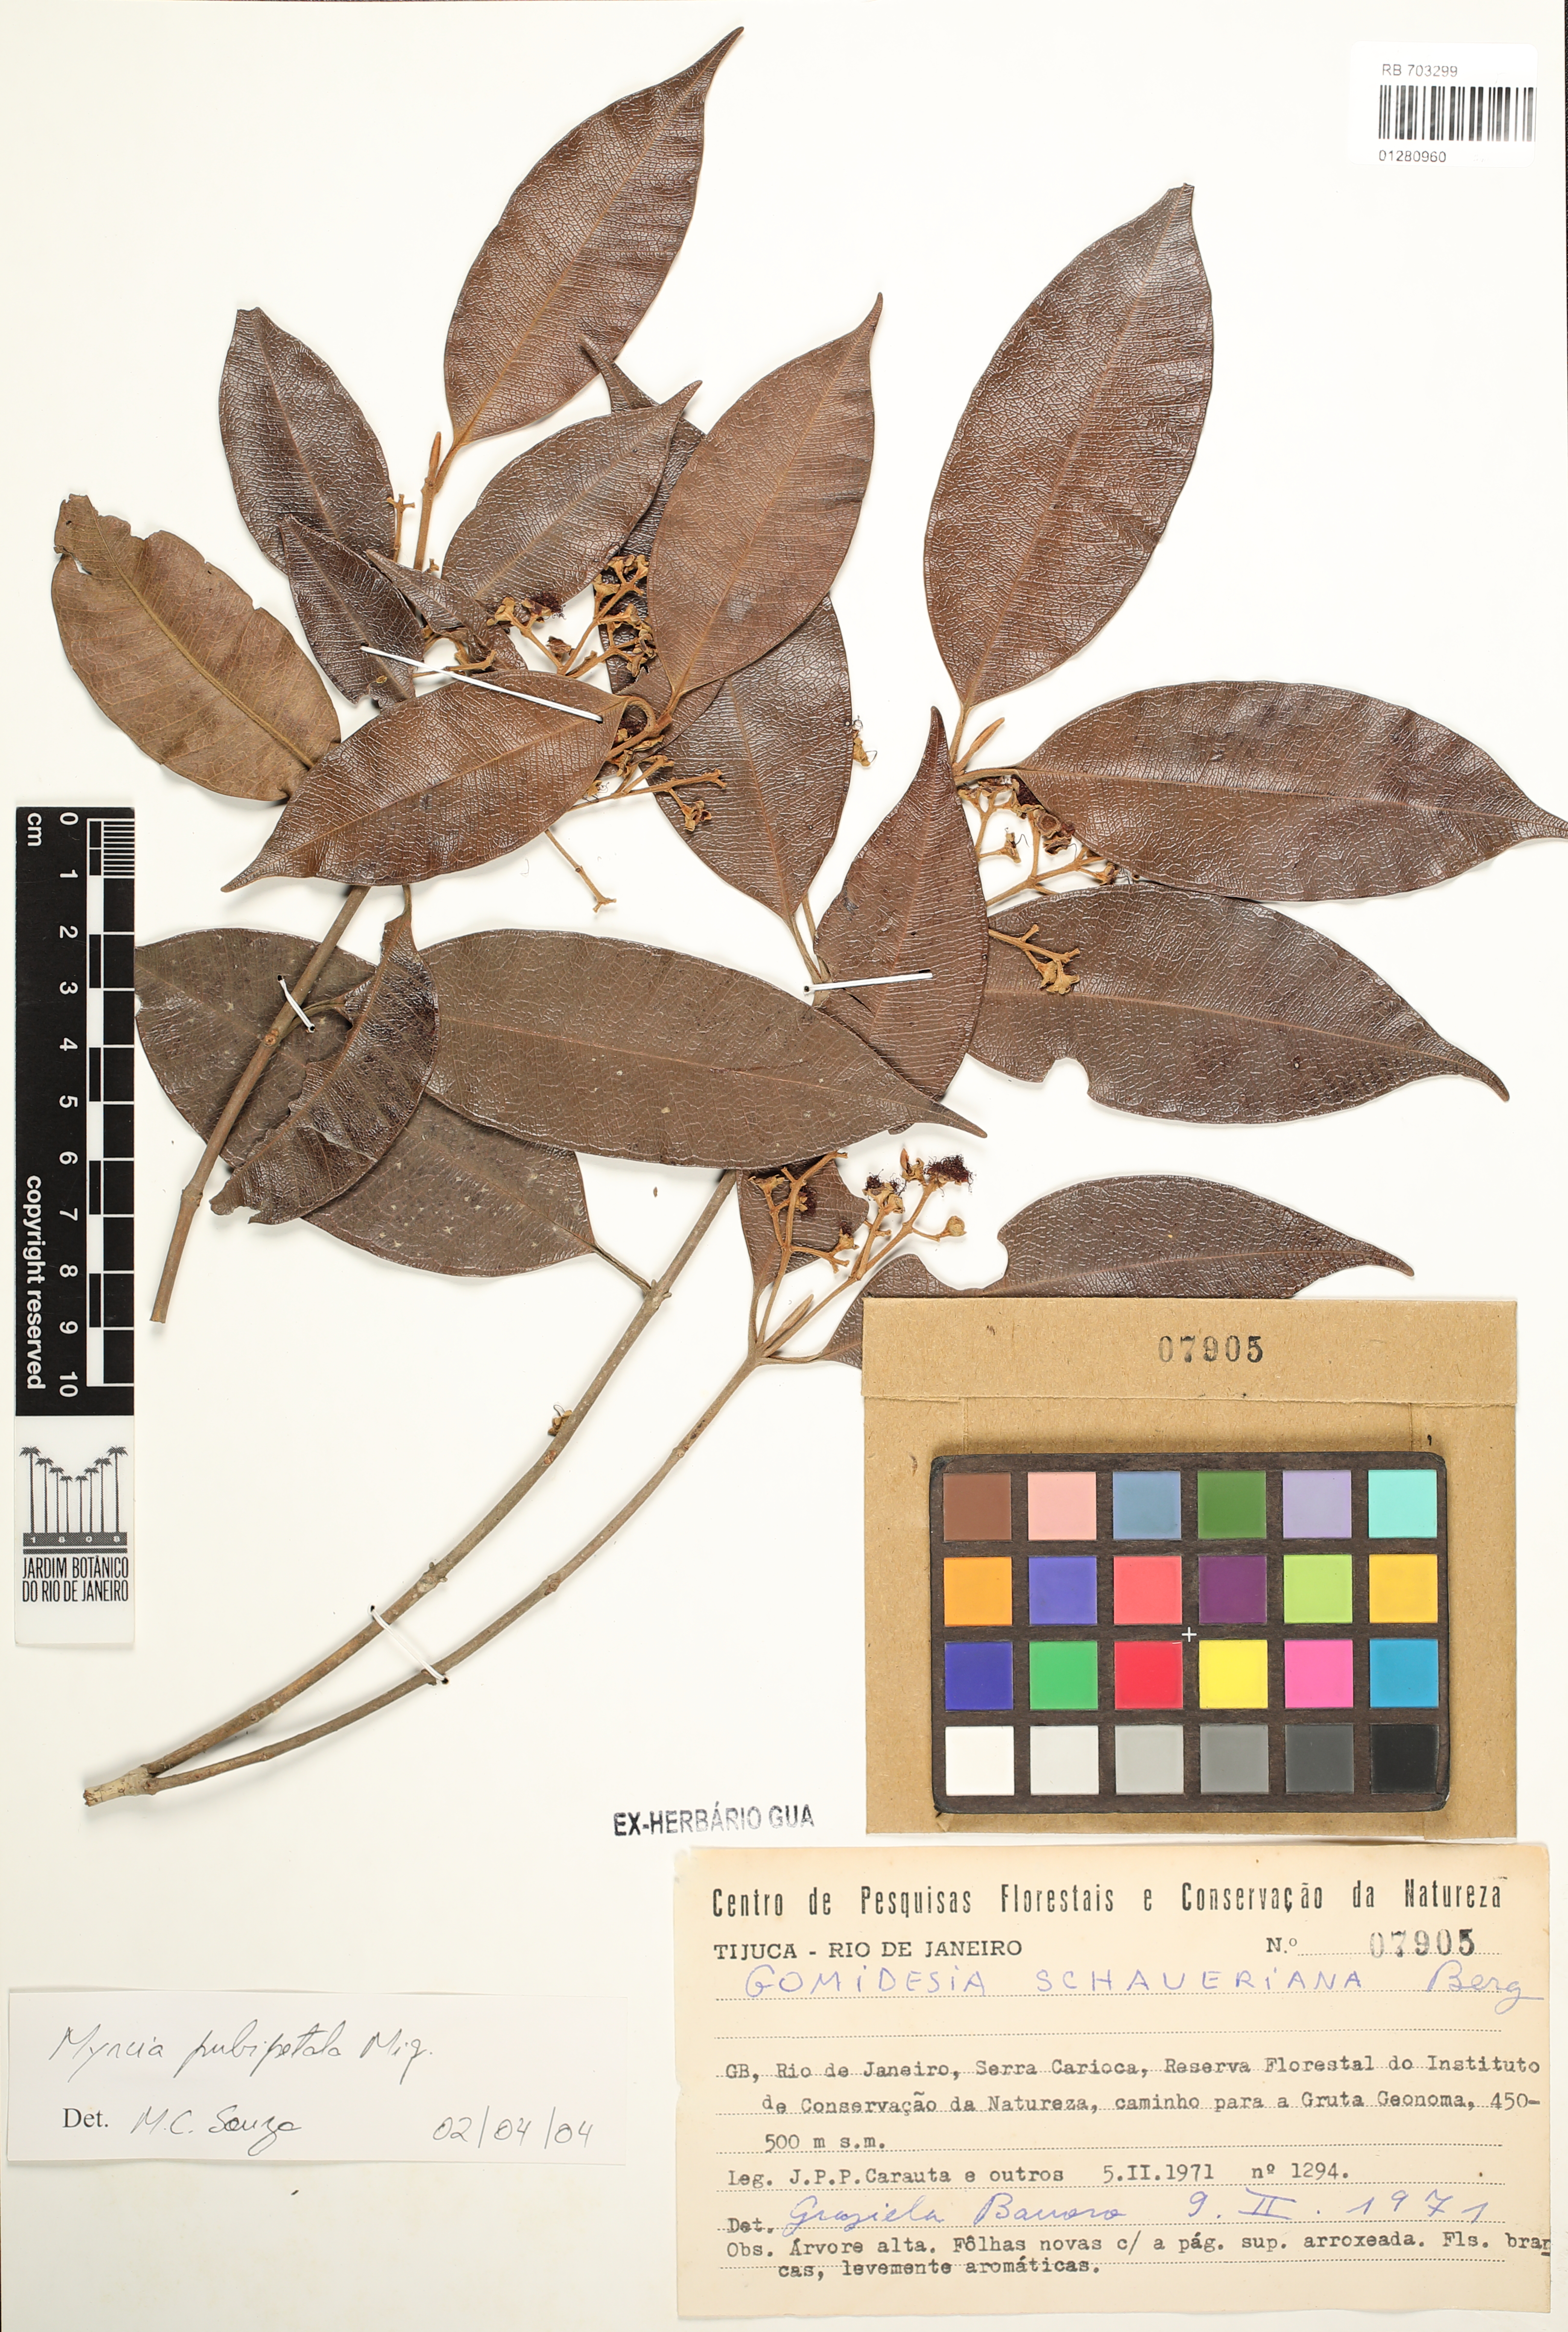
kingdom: Plantae
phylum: Tracheophyta
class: Magnoliopsida
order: Myrtales
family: Myrtaceae
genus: Myrcia
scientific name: Myrcia pubipetala
